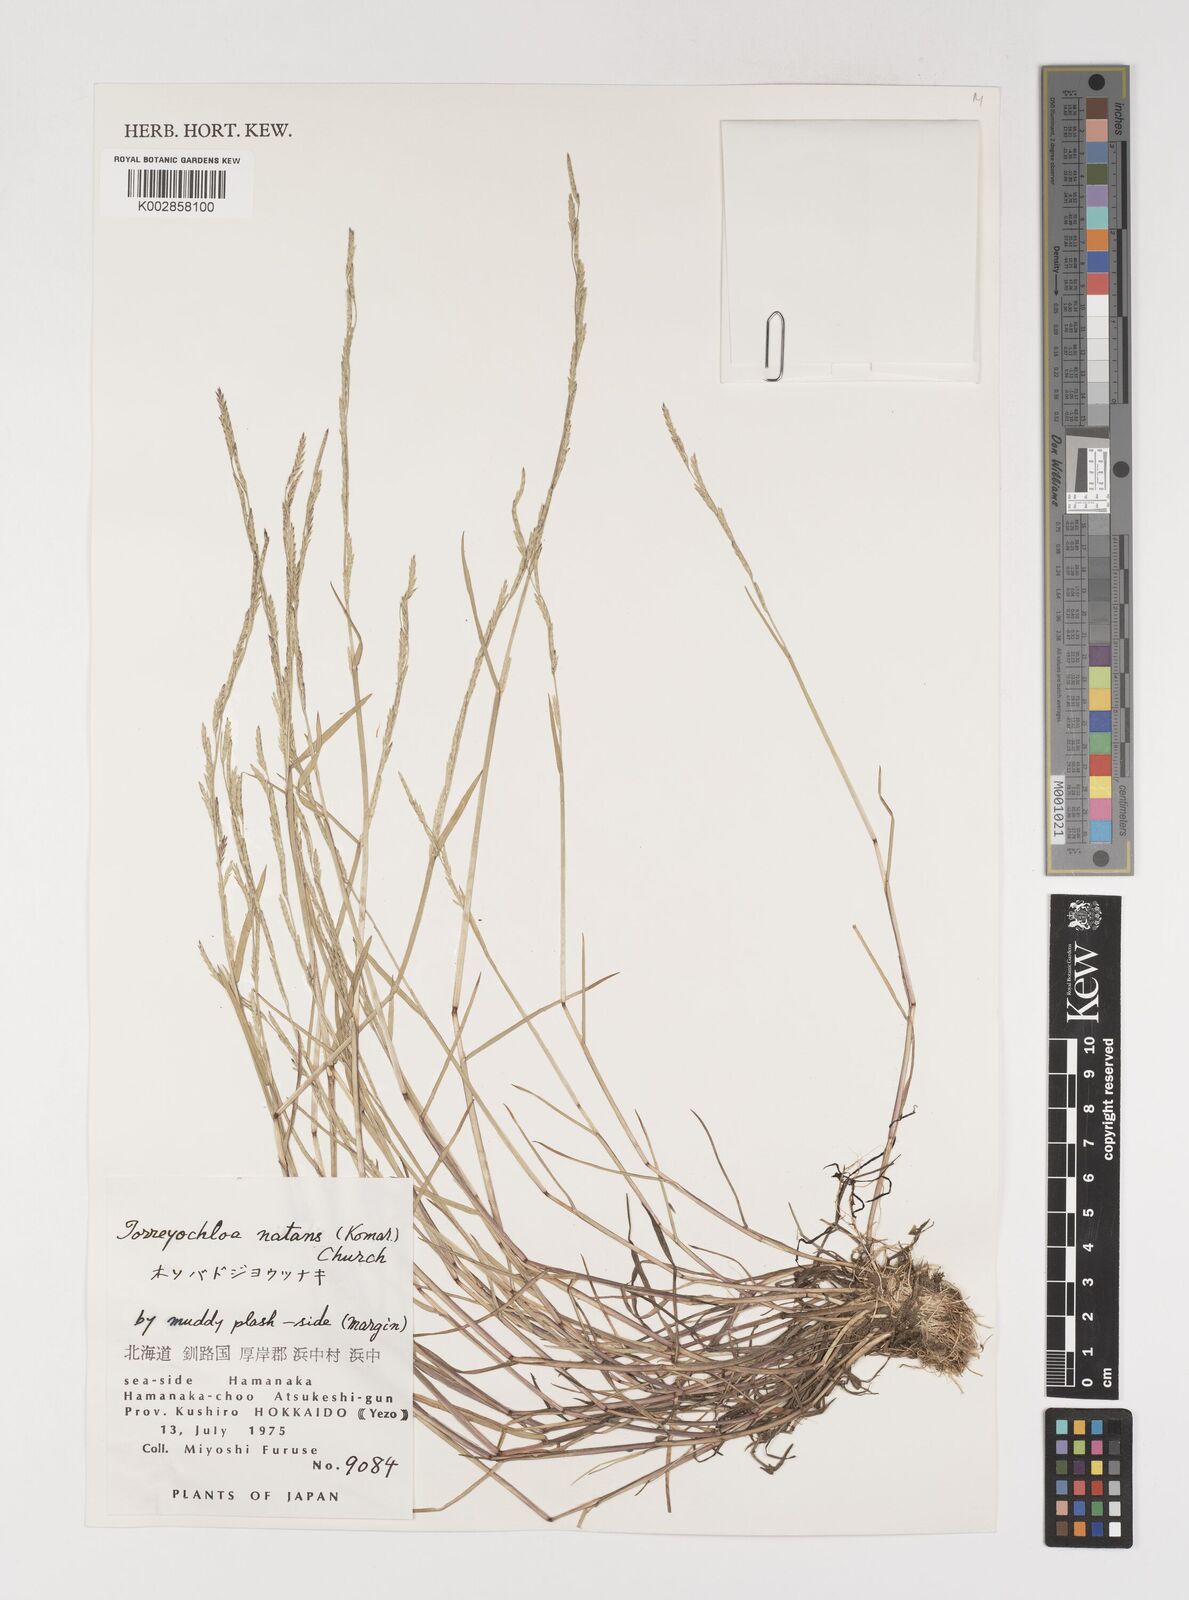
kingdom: Plantae
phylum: Tracheophyta
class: Liliopsida
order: Poales
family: Poaceae
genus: Torreyochloa
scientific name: Torreyochloa natans
